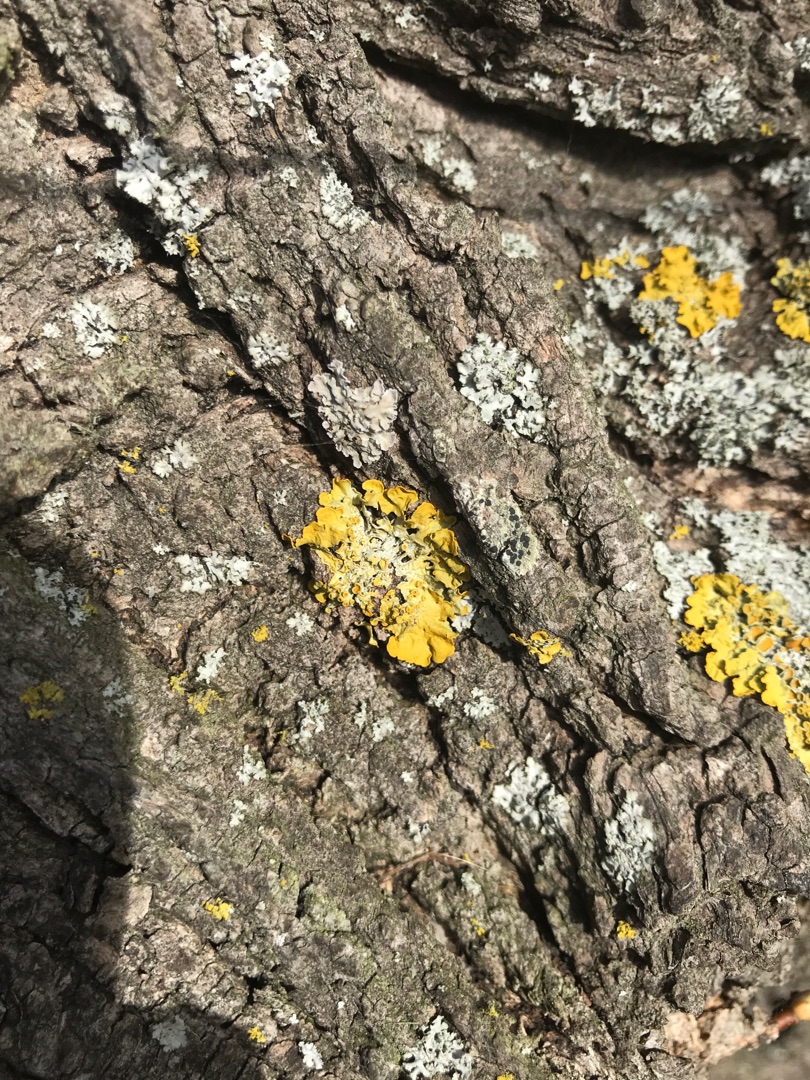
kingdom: Fungi
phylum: Ascomycota
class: Lecanoromycetes
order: Teloschistales
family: Teloschistaceae
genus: Xanthoria
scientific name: Xanthoria parietina
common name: Almindelig væggelav
